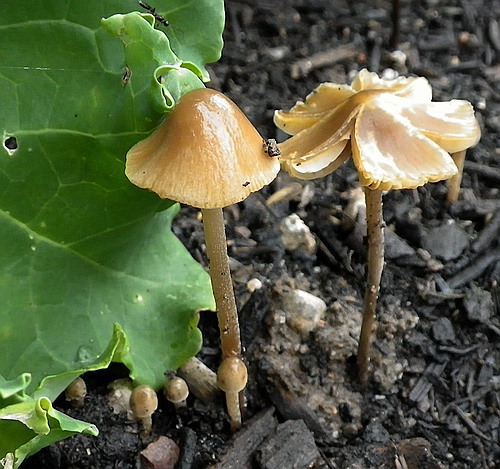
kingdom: Fungi
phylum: Basidiomycota
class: Agaricomycetes
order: Agaricales
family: Bolbitiaceae
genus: Conocybe
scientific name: Conocybe alboradicans
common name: rod-keglehat
